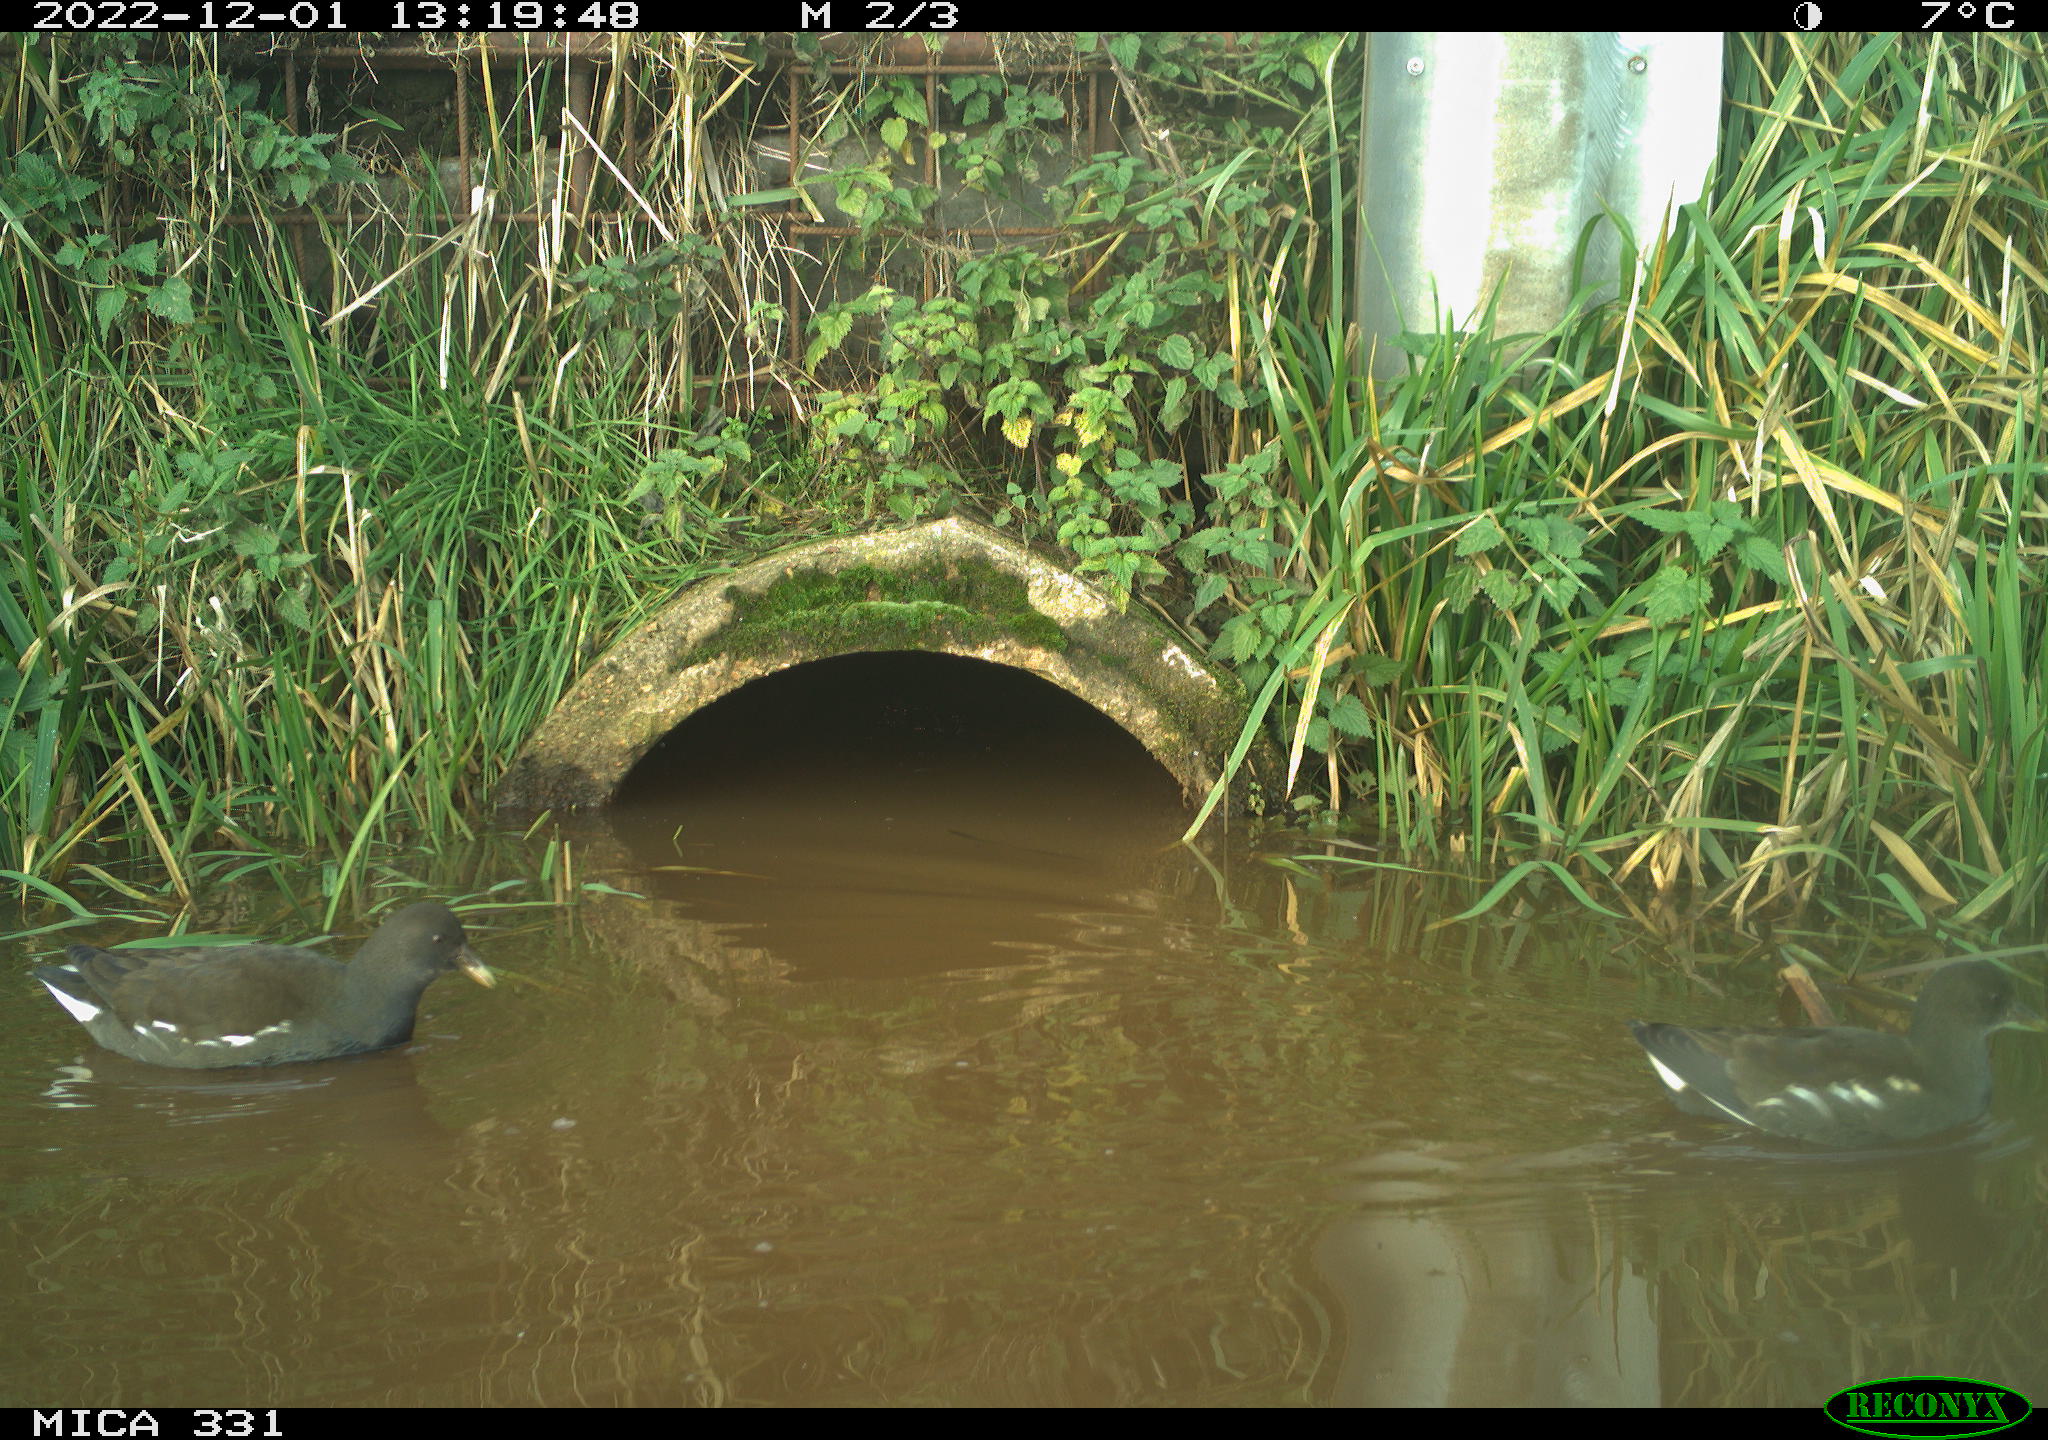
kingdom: Animalia
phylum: Chordata
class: Aves
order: Gruiformes
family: Rallidae
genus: Gallinula
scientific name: Gallinula chloropus
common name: Common moorhen
